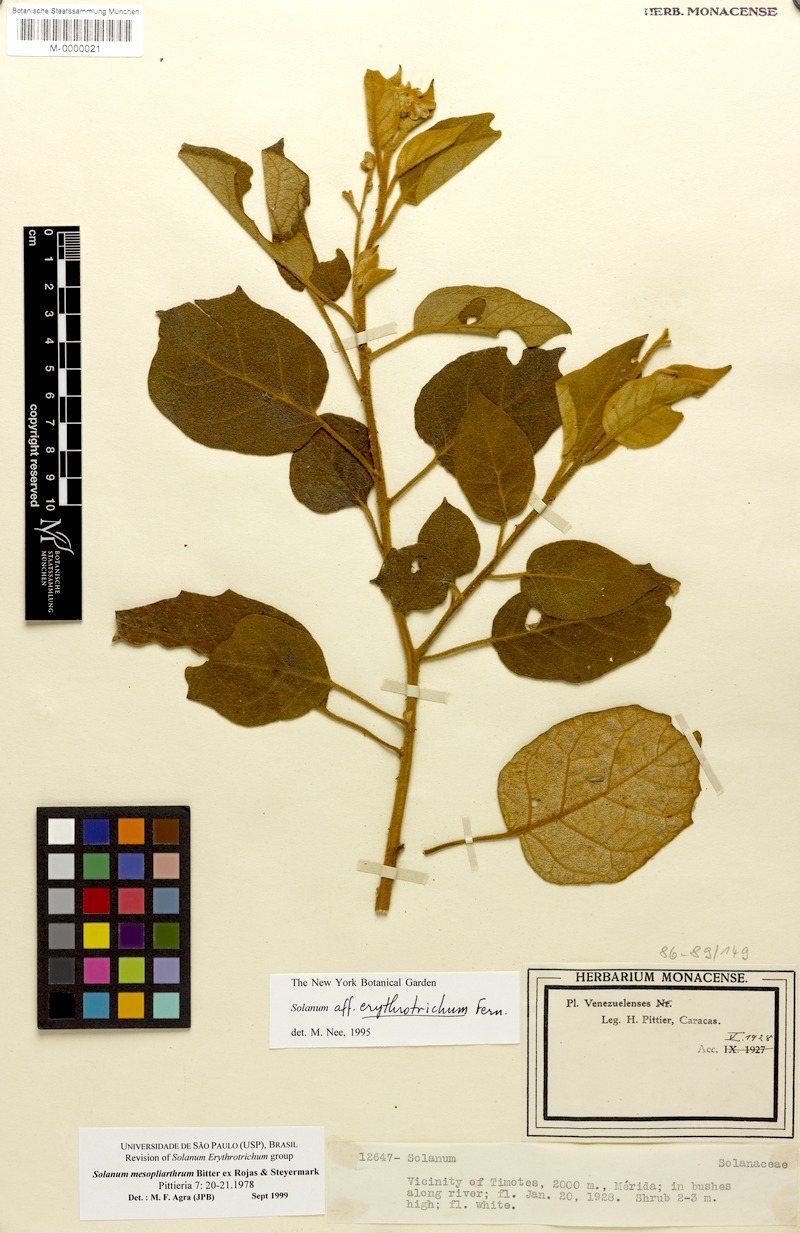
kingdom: Plantae
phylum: Tracheophyta
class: Magnoliopsida
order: Solanales
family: Solanaceae
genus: Solanum
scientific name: Solanum velutinum
